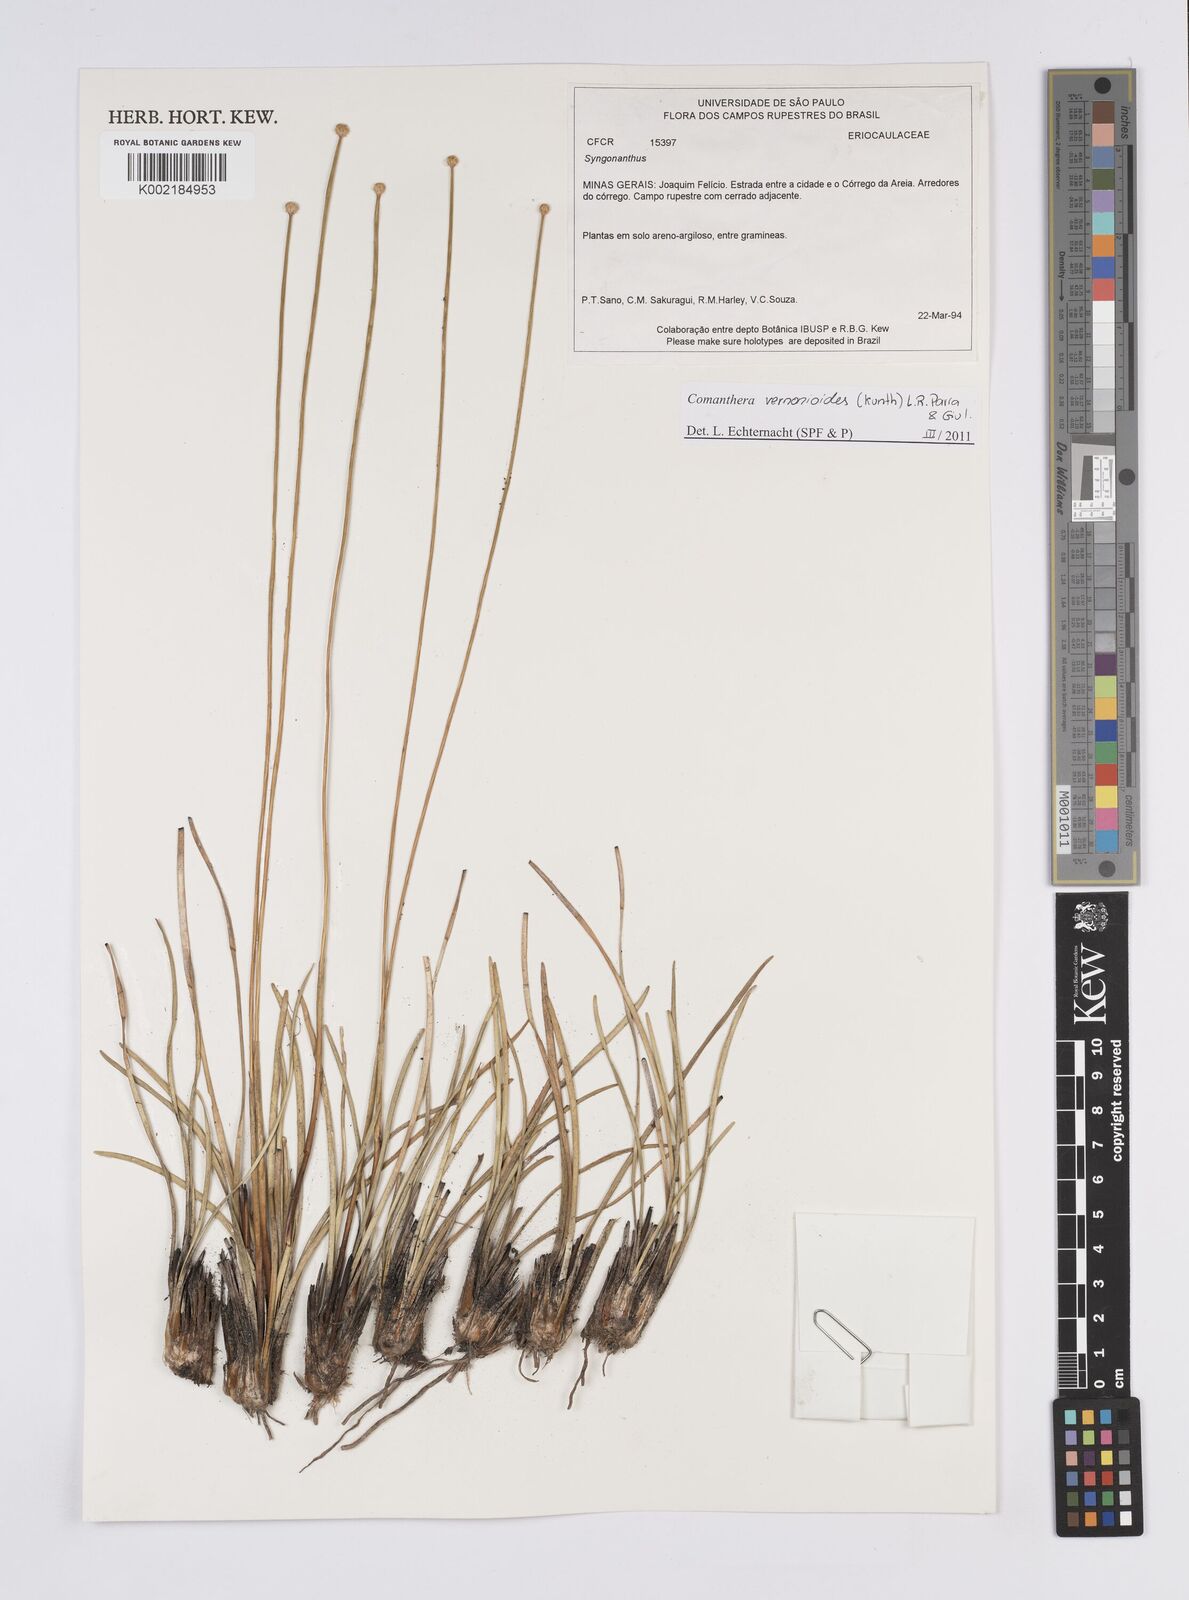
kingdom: Plantae
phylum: Tracheophyta
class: Liliopsida
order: Poales
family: Eriocaulaceae
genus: Comanthera
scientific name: Comanthera centauroides
